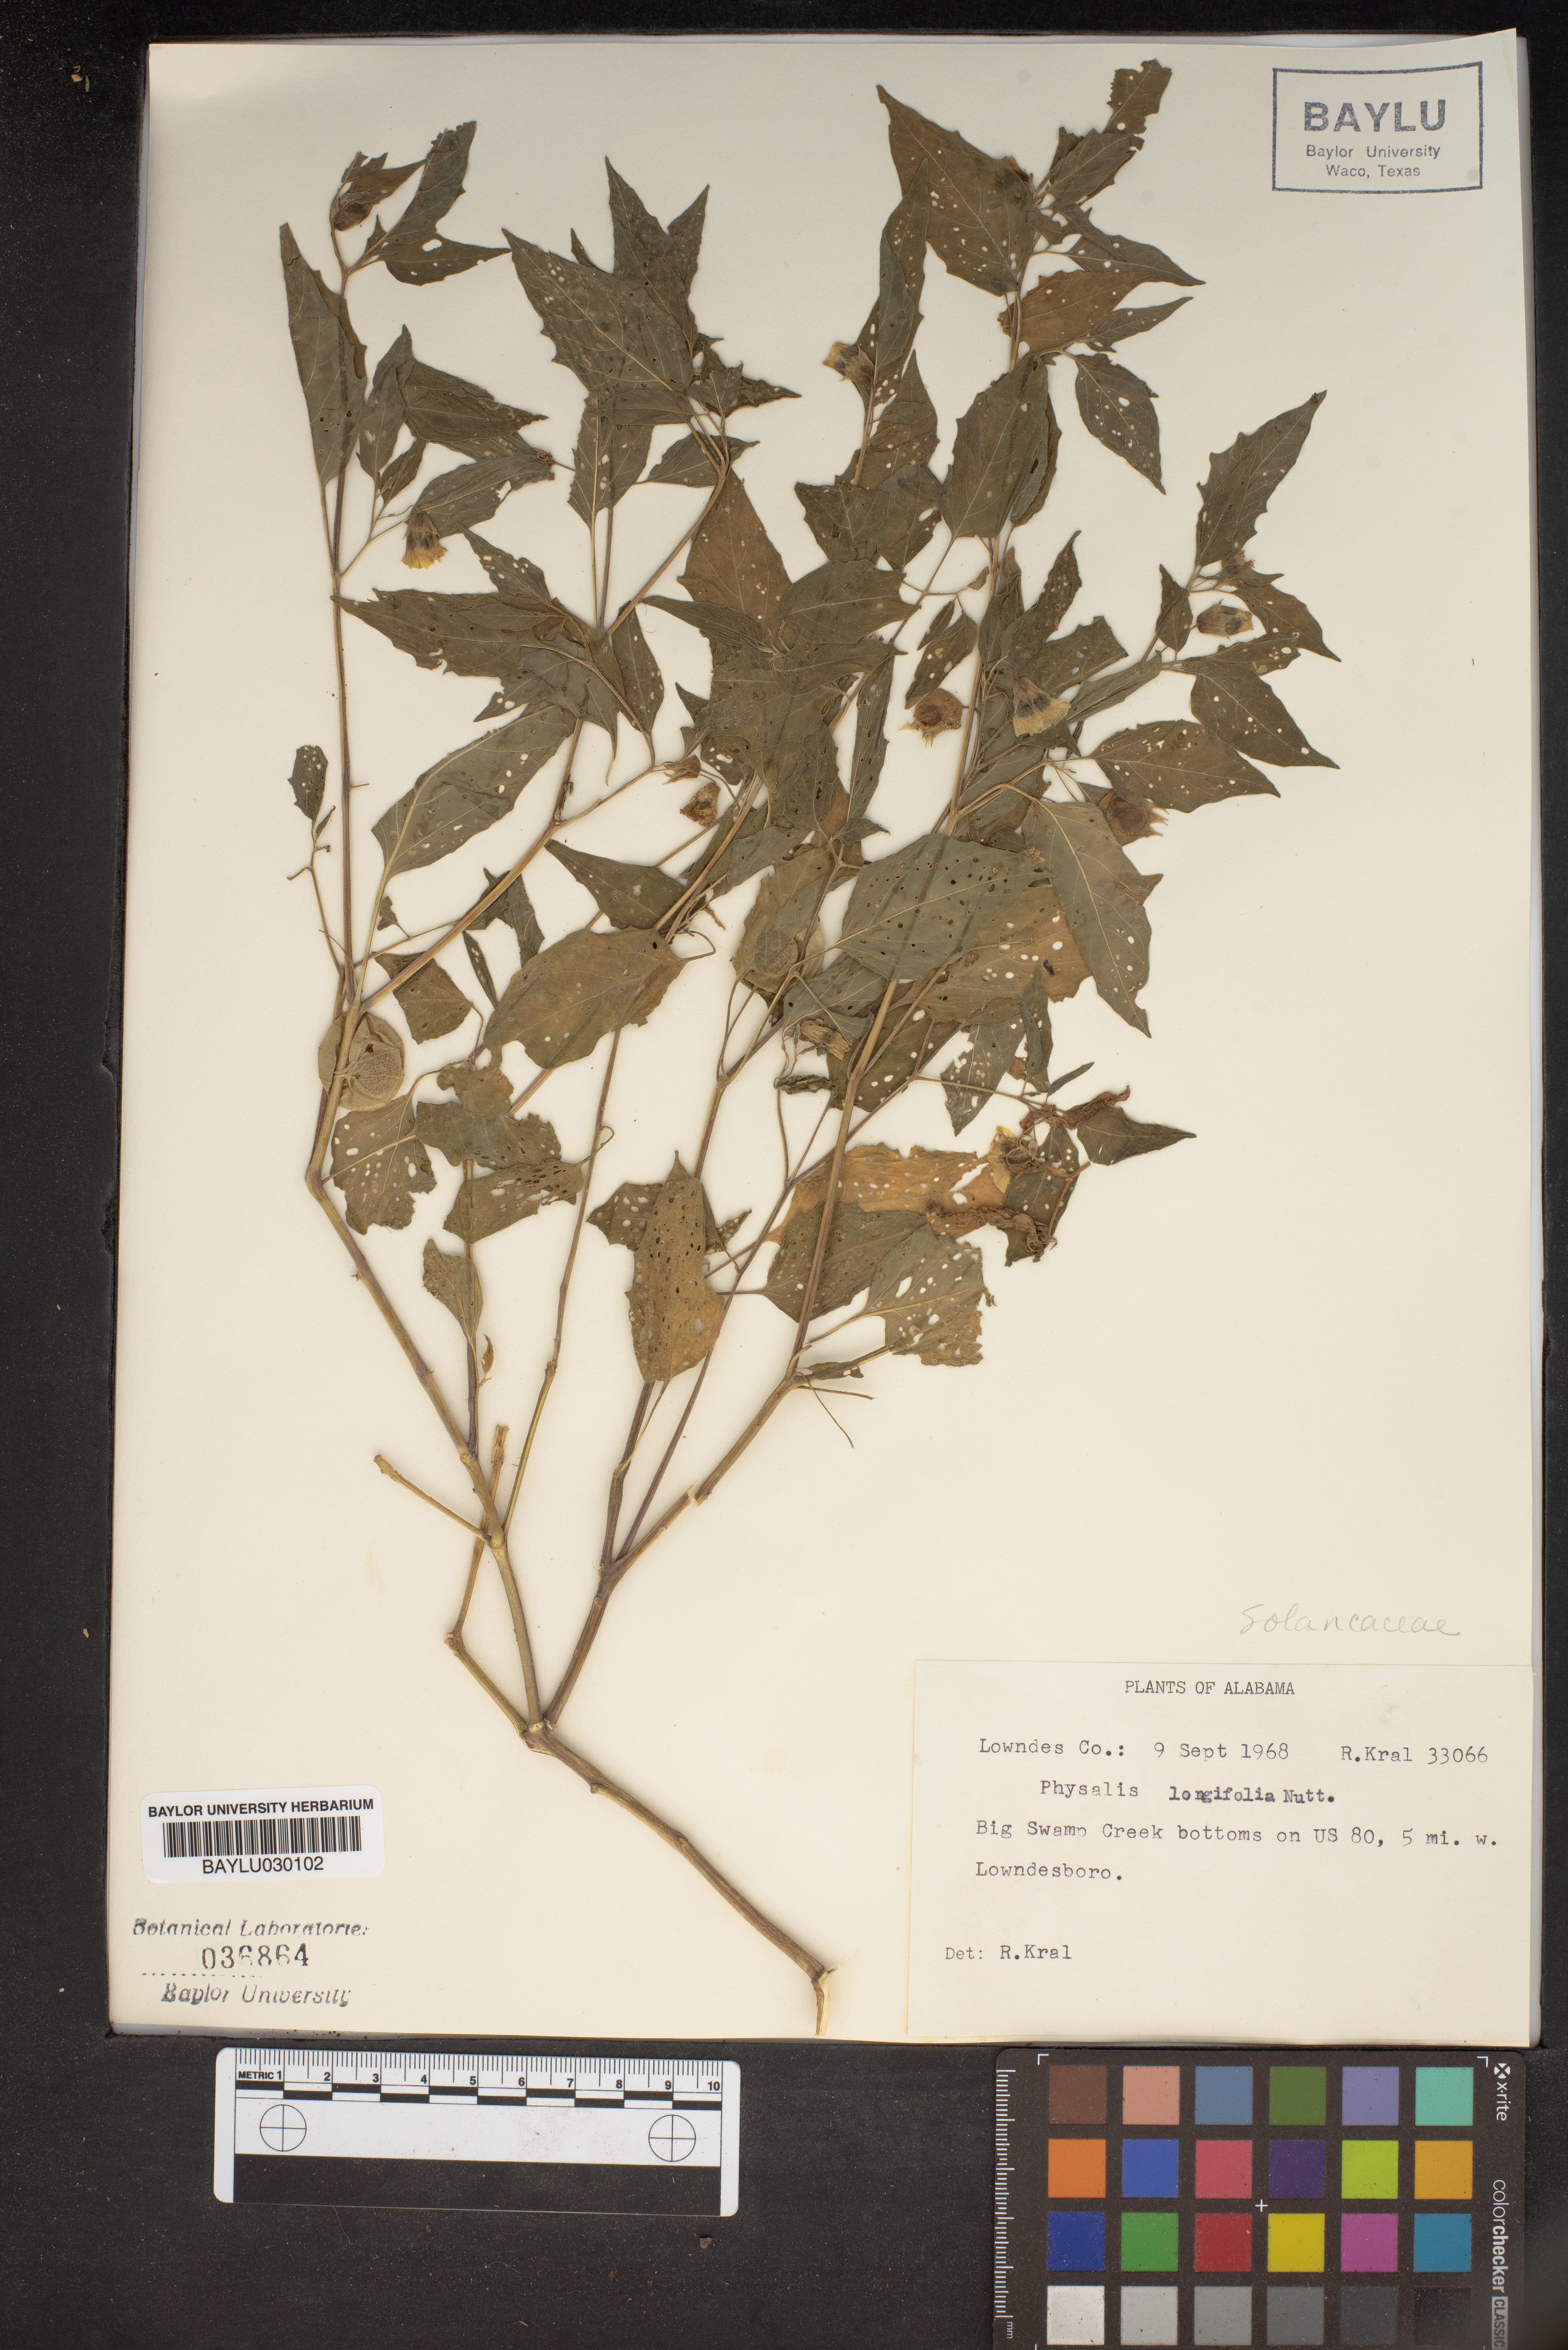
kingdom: Plantae
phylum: Tracheophyta
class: Magnoliopsida
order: Solanales
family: Solanaceae
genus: Physalis
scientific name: Physalis longifolia
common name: Common ground-cherry
